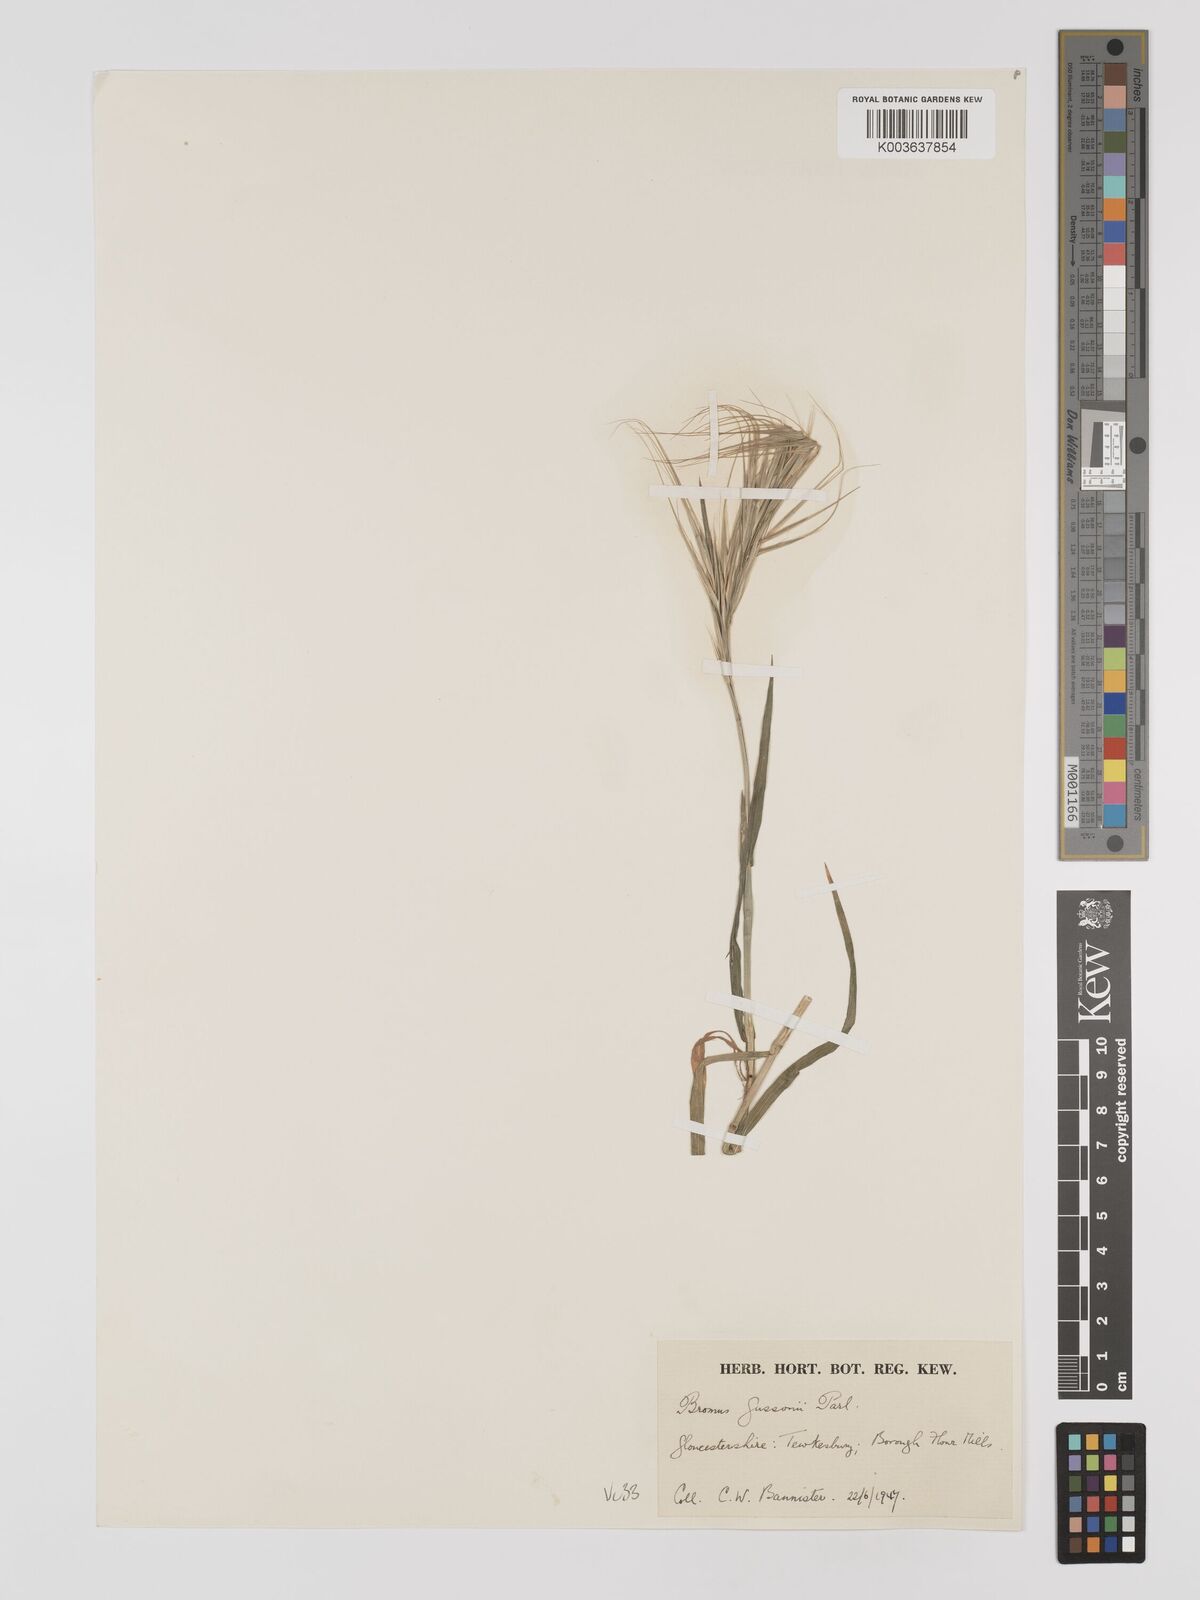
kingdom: Plantae
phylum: Tracheophyta
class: Liliopsida
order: Poales
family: Poaceae
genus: Bromus
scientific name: Bromus
